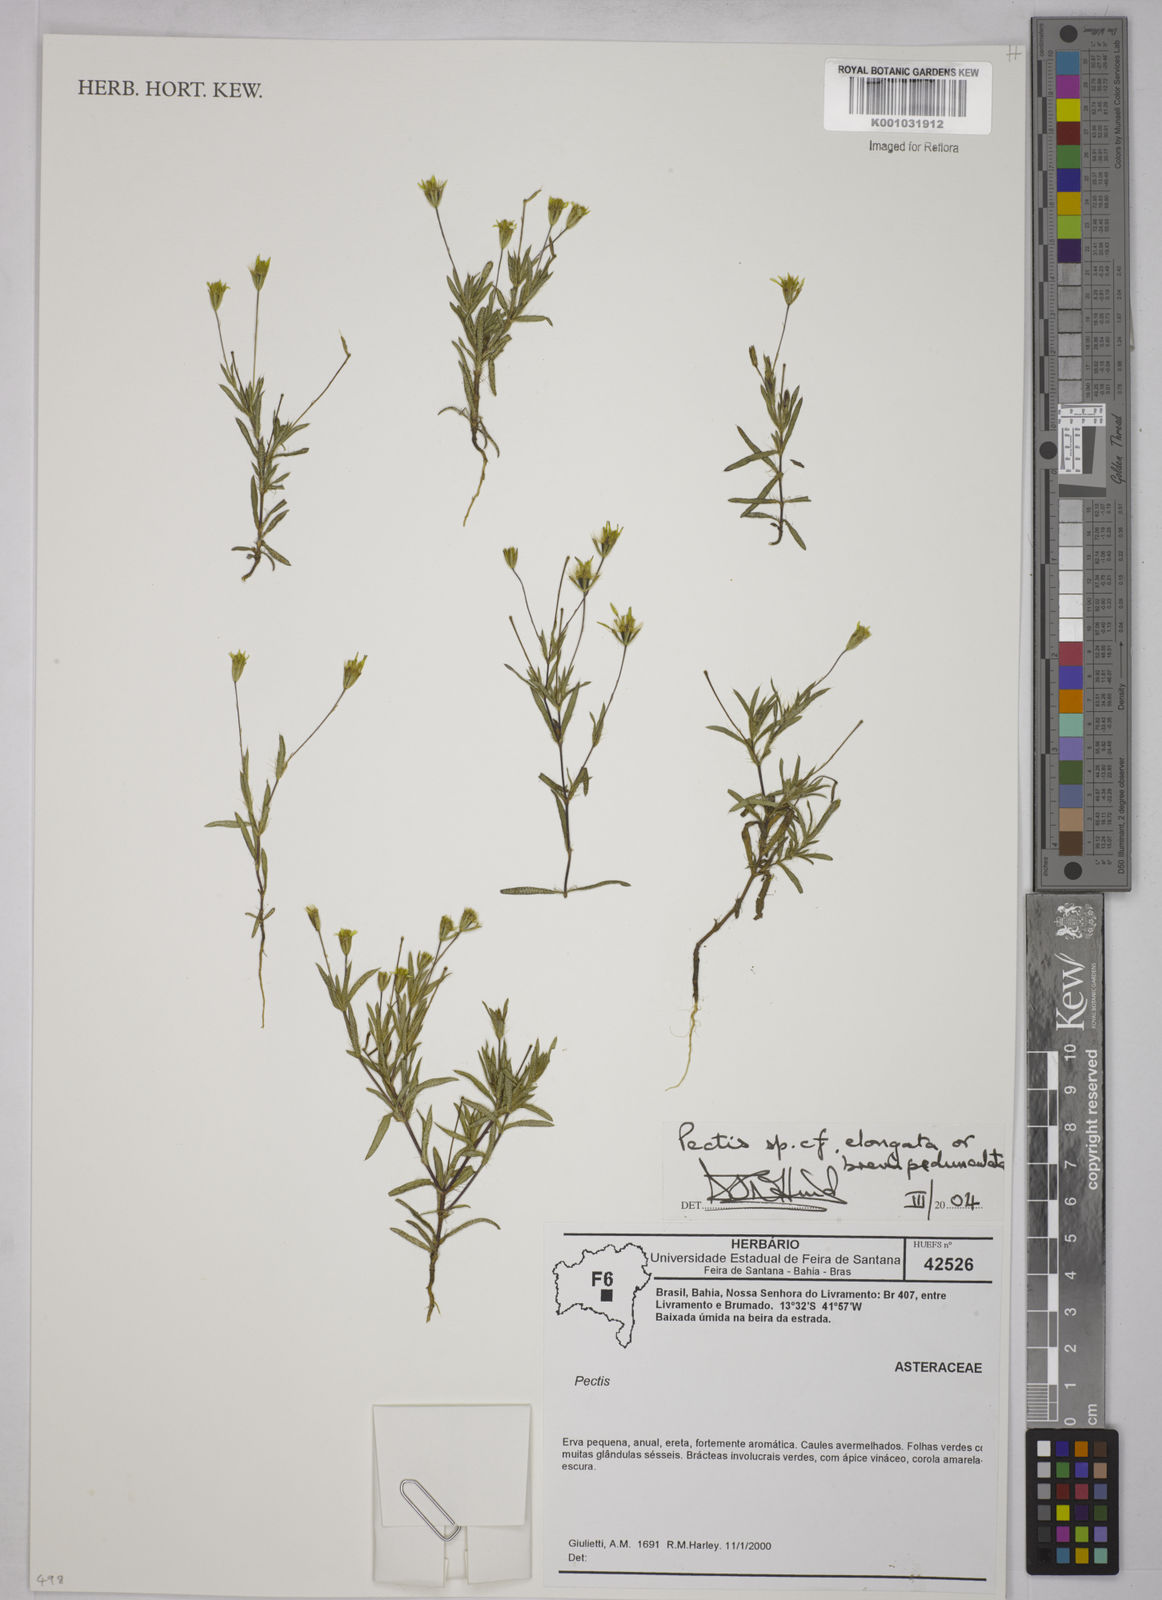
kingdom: Plantae
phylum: Tracheophyta
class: Magnoliopsida
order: Asterales
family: Asteraceae
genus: Pectis
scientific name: Pectis elongata
